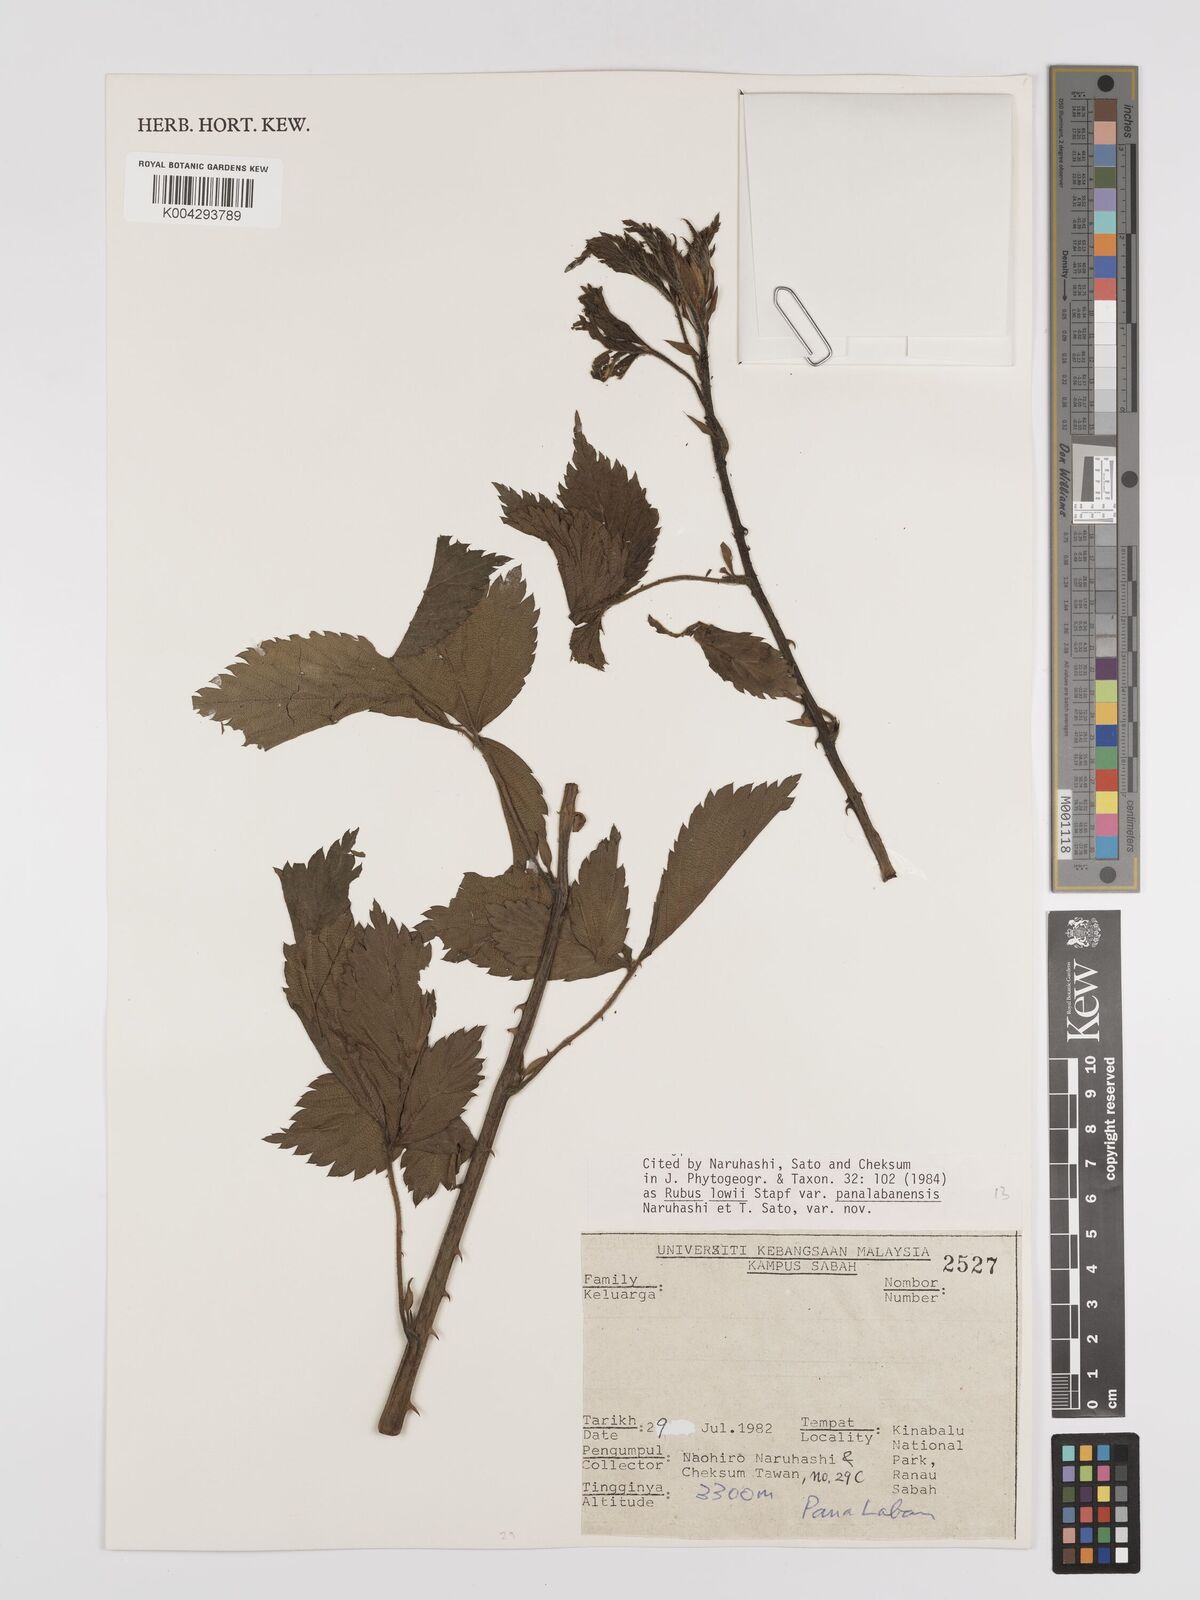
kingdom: Plantae
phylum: Tracheophyta
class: Magnoliopsida
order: Rosales
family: Rosaceae
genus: Rubus
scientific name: Rubus lowii
